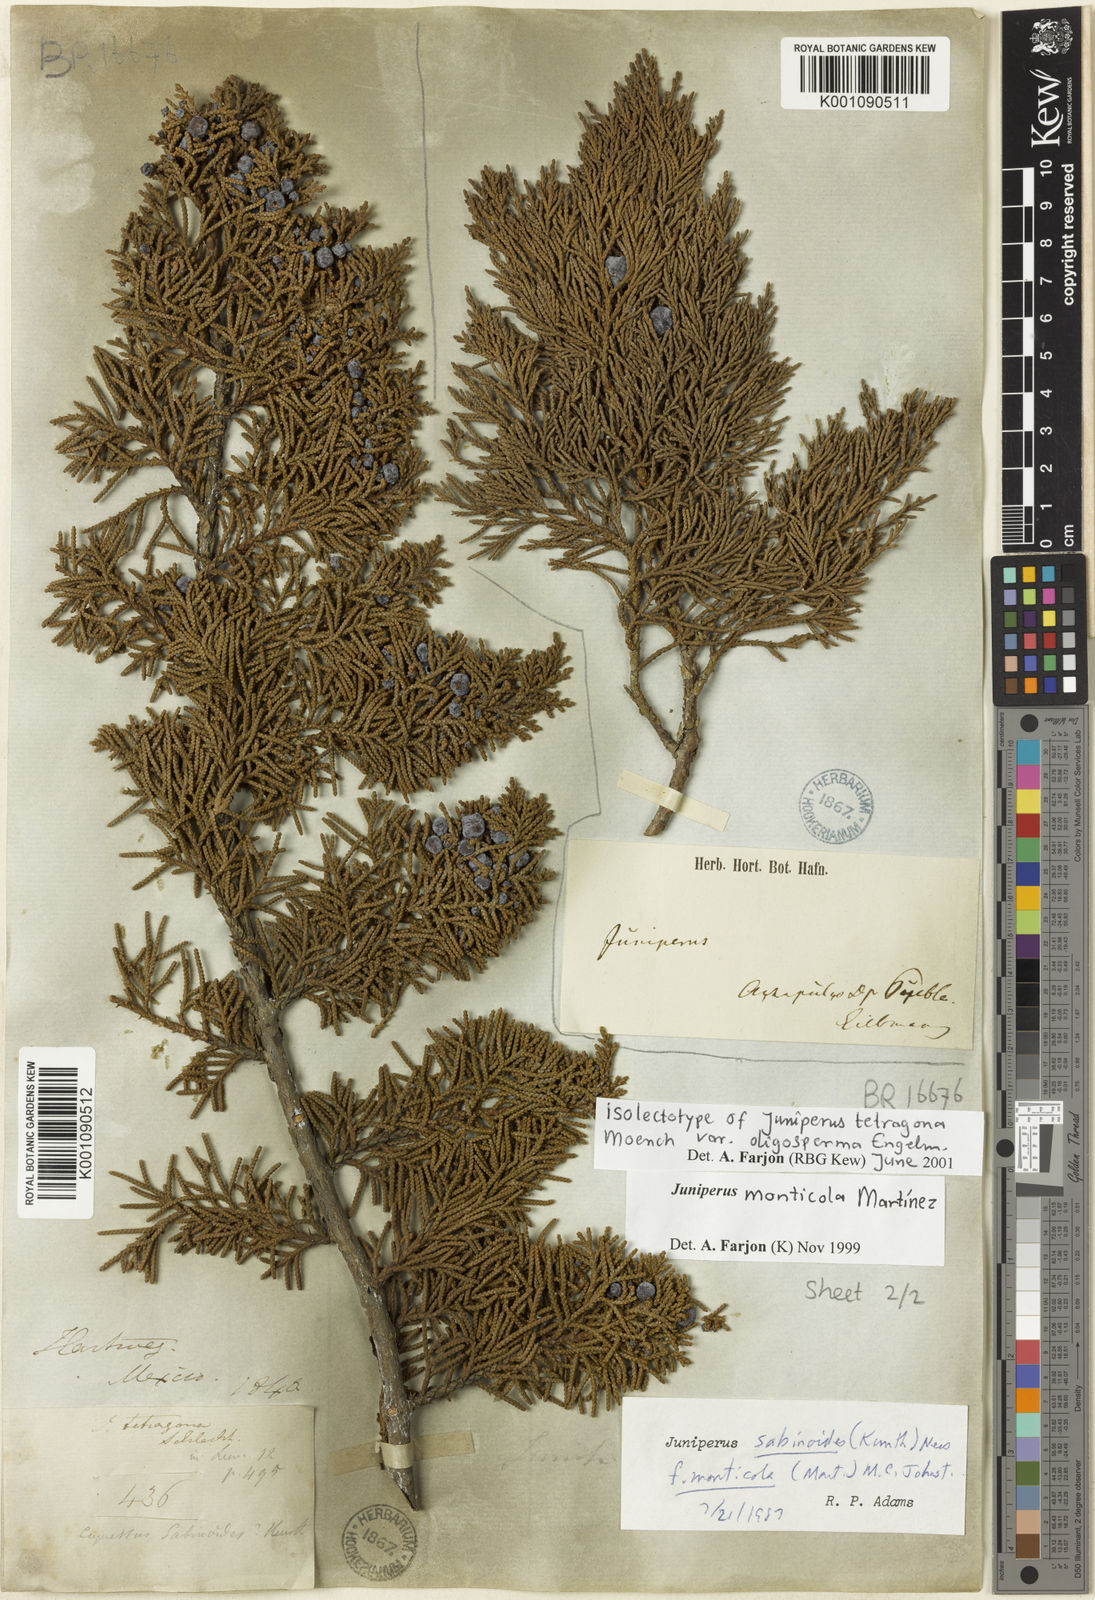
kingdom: Plantae
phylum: Tracheophyta
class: Pinopsida
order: Pinales
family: Cupressaceae
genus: Juniperus
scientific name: Juniperus monticola
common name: Mexican juniper
